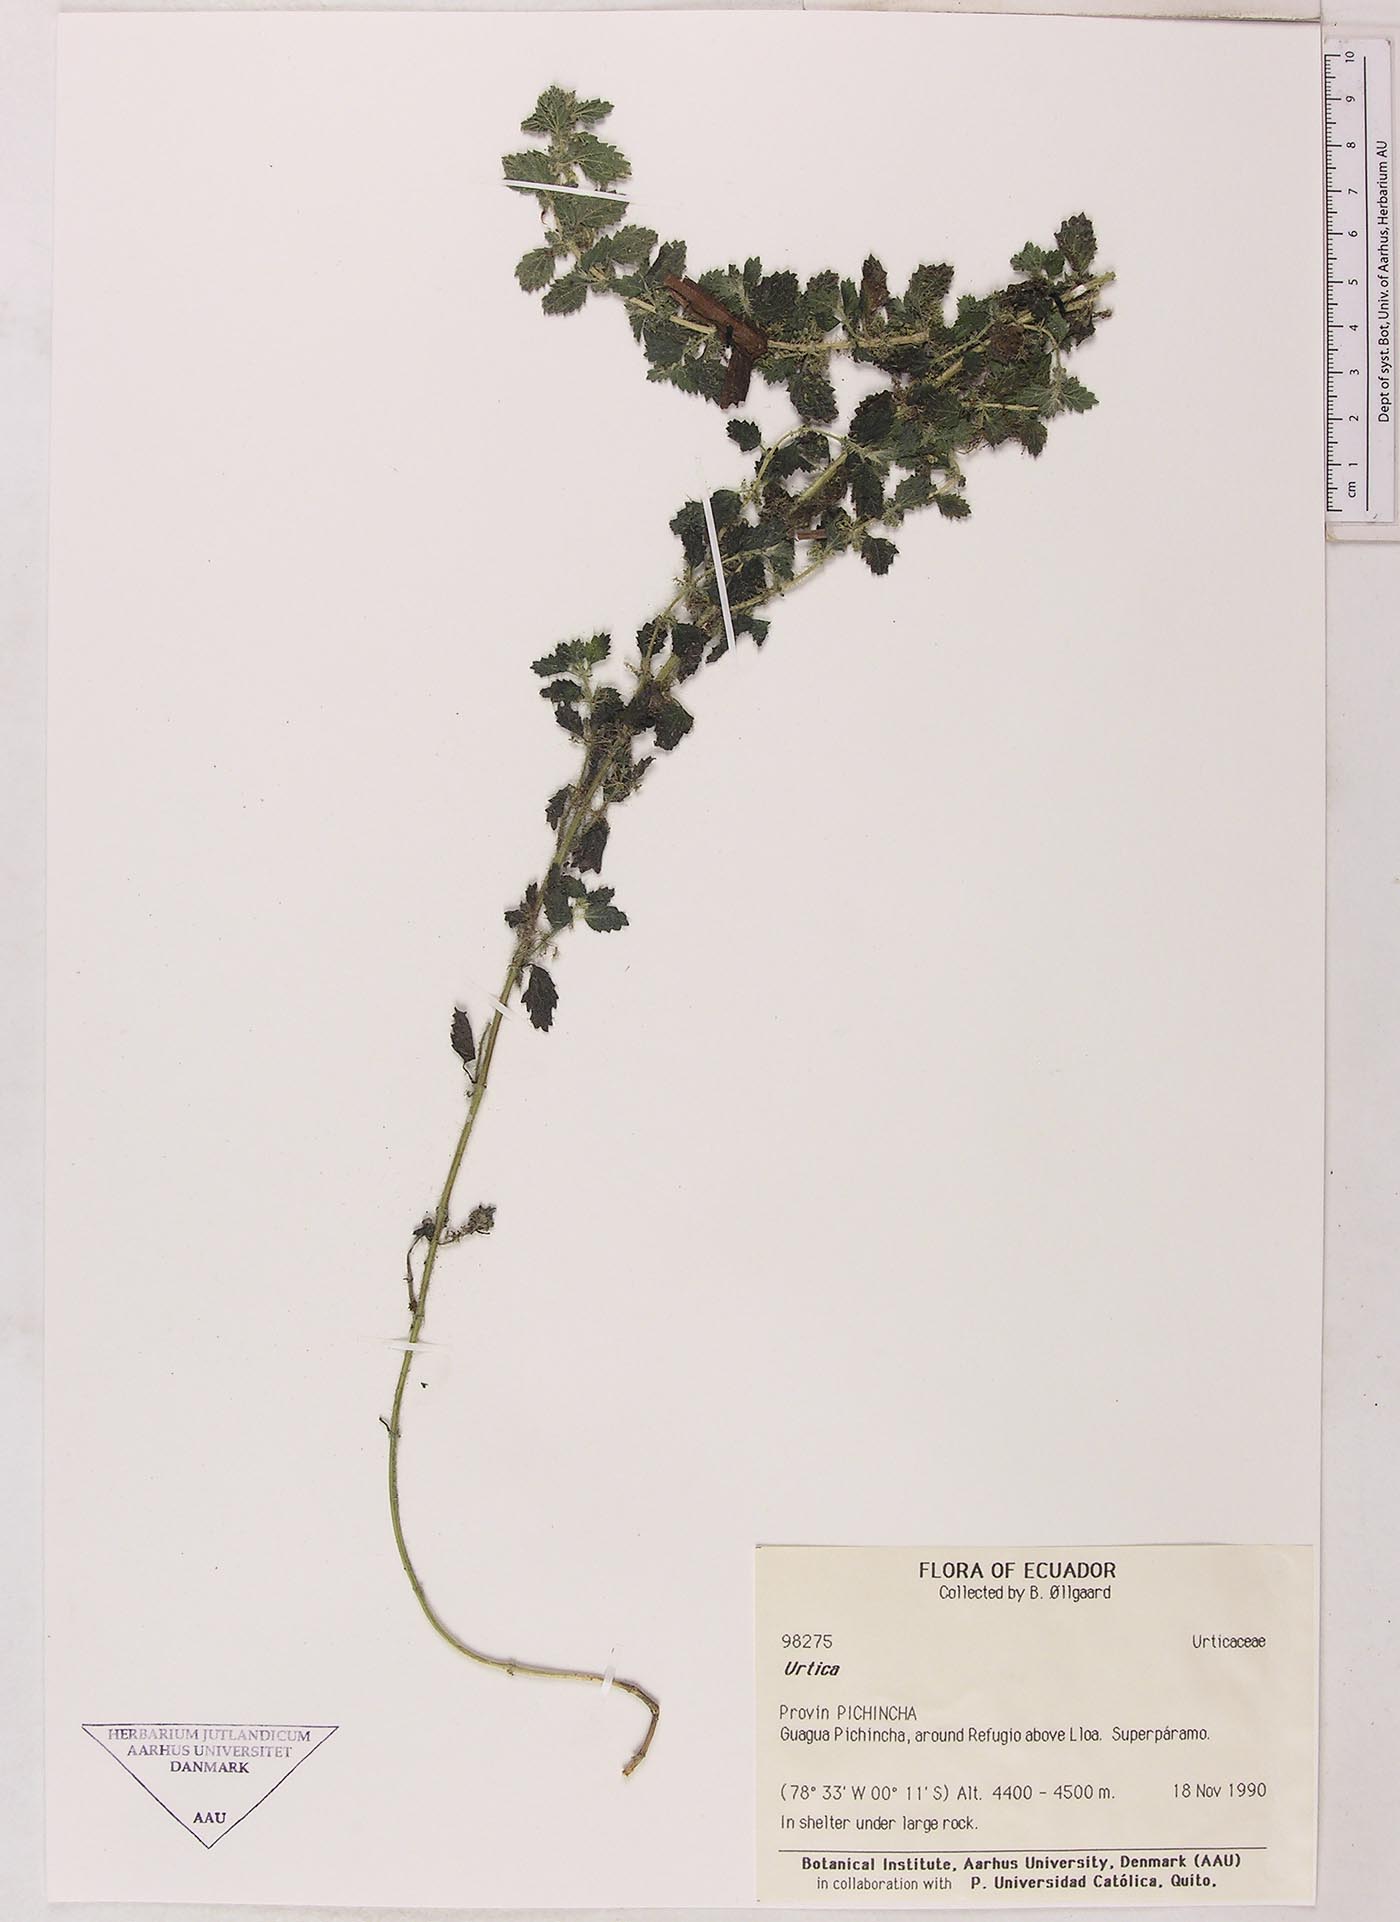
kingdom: Plantae
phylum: Tracheophyta
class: Magnoliopsida
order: Rosales
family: Urticaceae
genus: Urtica
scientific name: Urtica echinata
